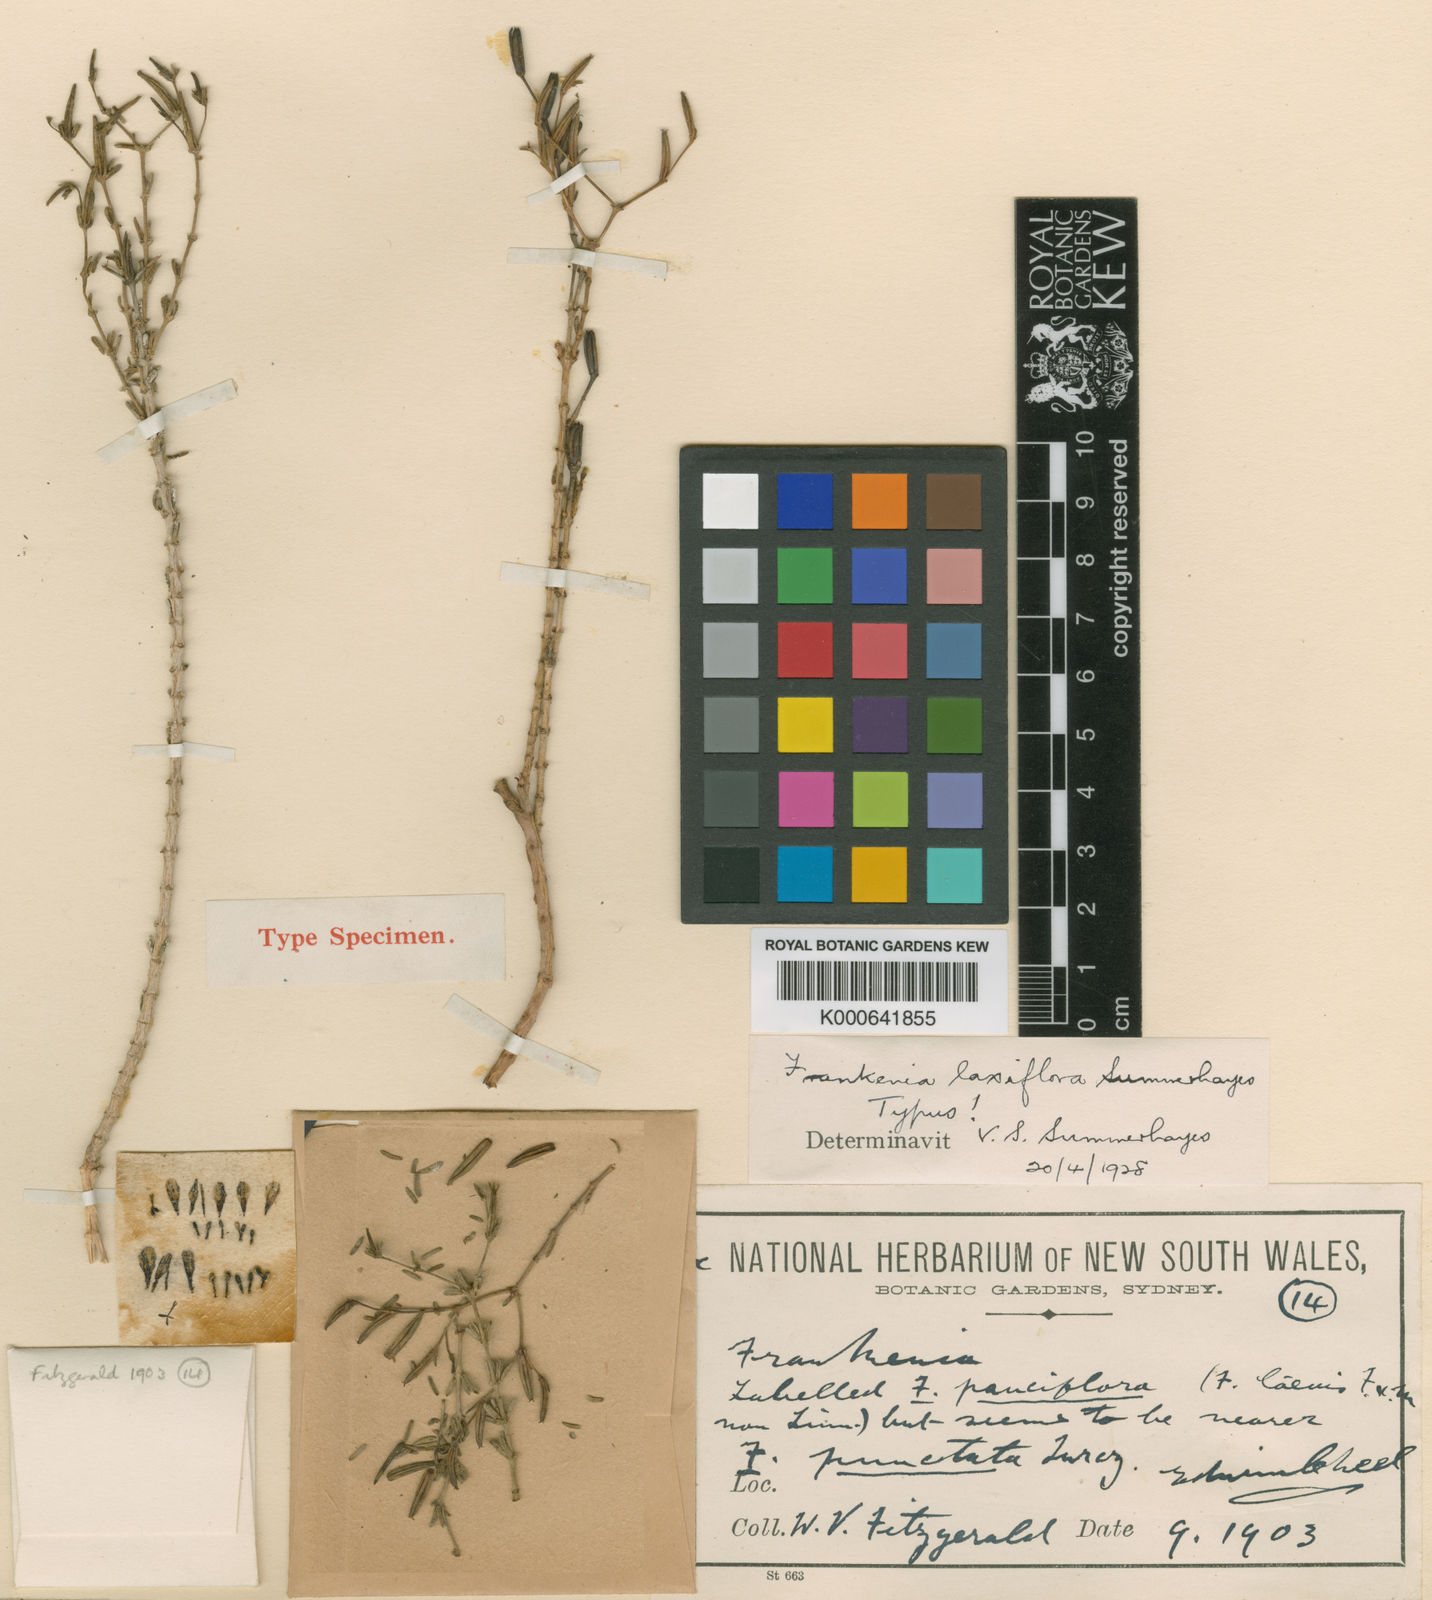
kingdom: Plantae
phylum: Tracheophyta
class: Magnoliopsida
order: Caryophyllales
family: Frankeniaceae
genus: Frankenia
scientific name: Frankenia laxiflora
